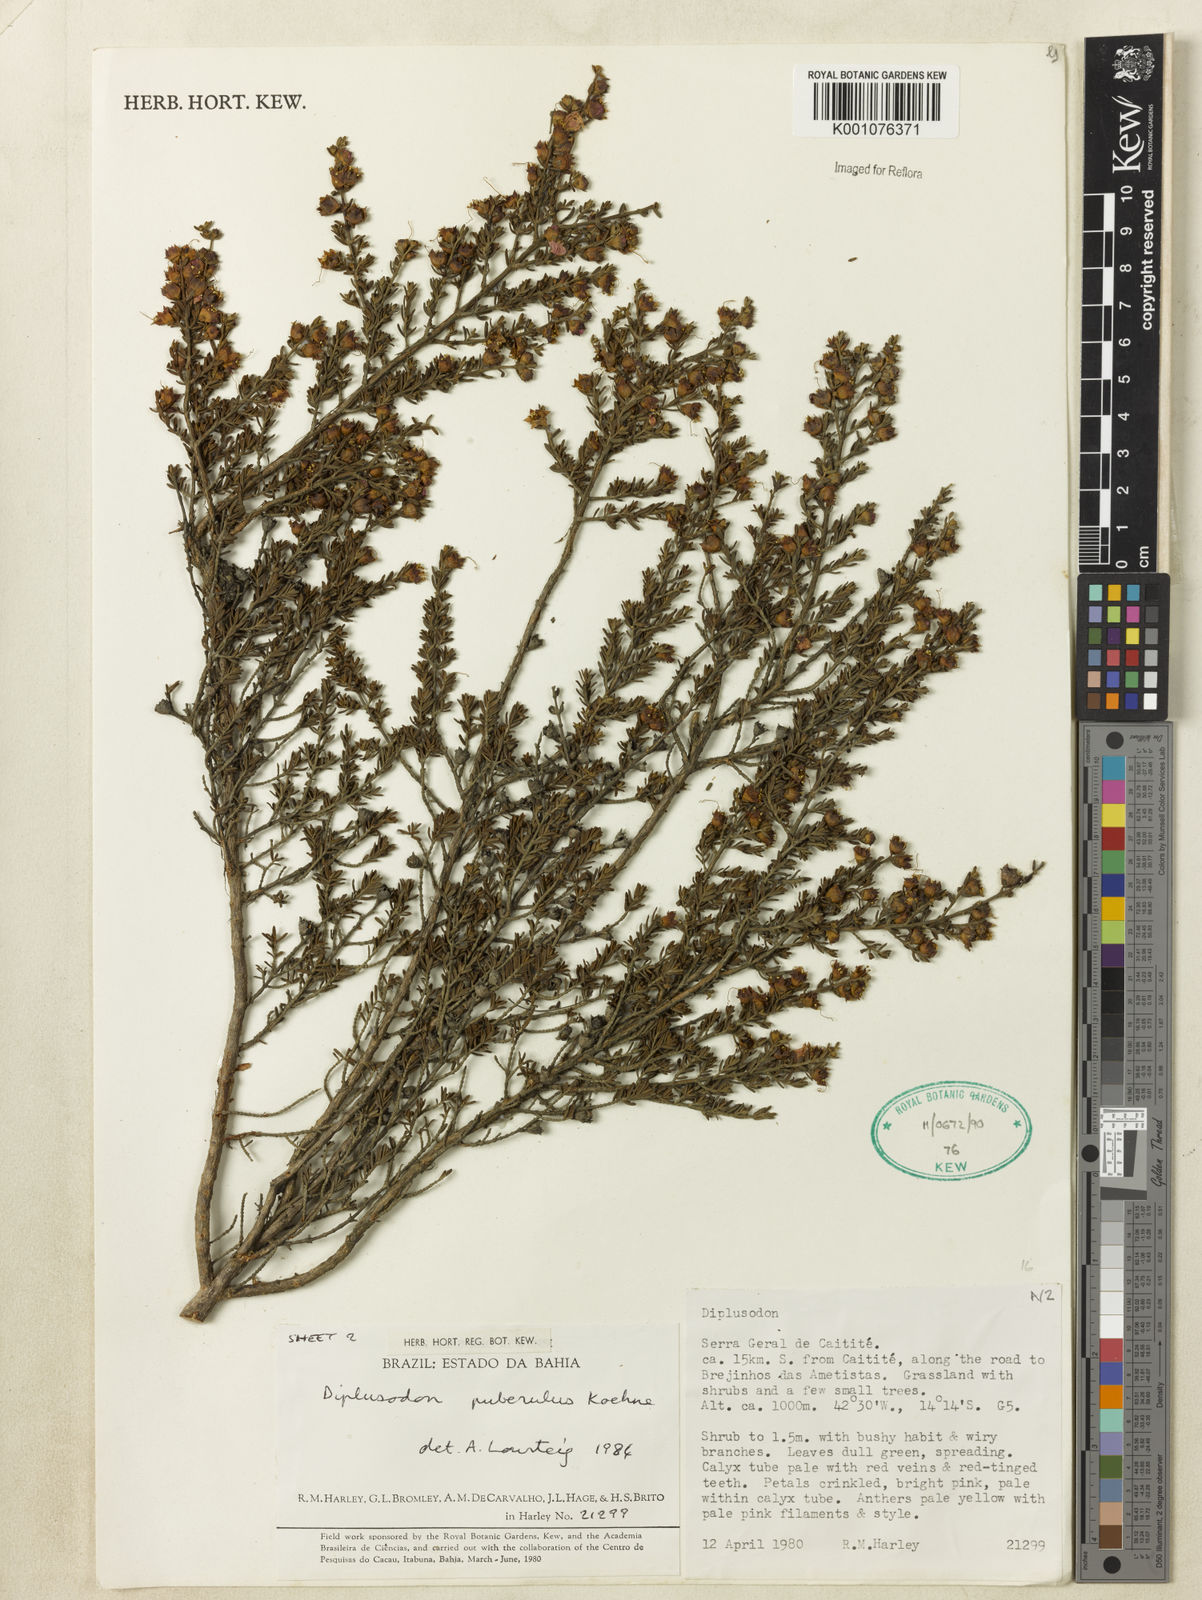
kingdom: Plantae
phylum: Tracheophyta
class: Magnoliopsida
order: Myrtales
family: Lythraceae
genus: Diplusodon
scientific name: Diplusodon puberulus
